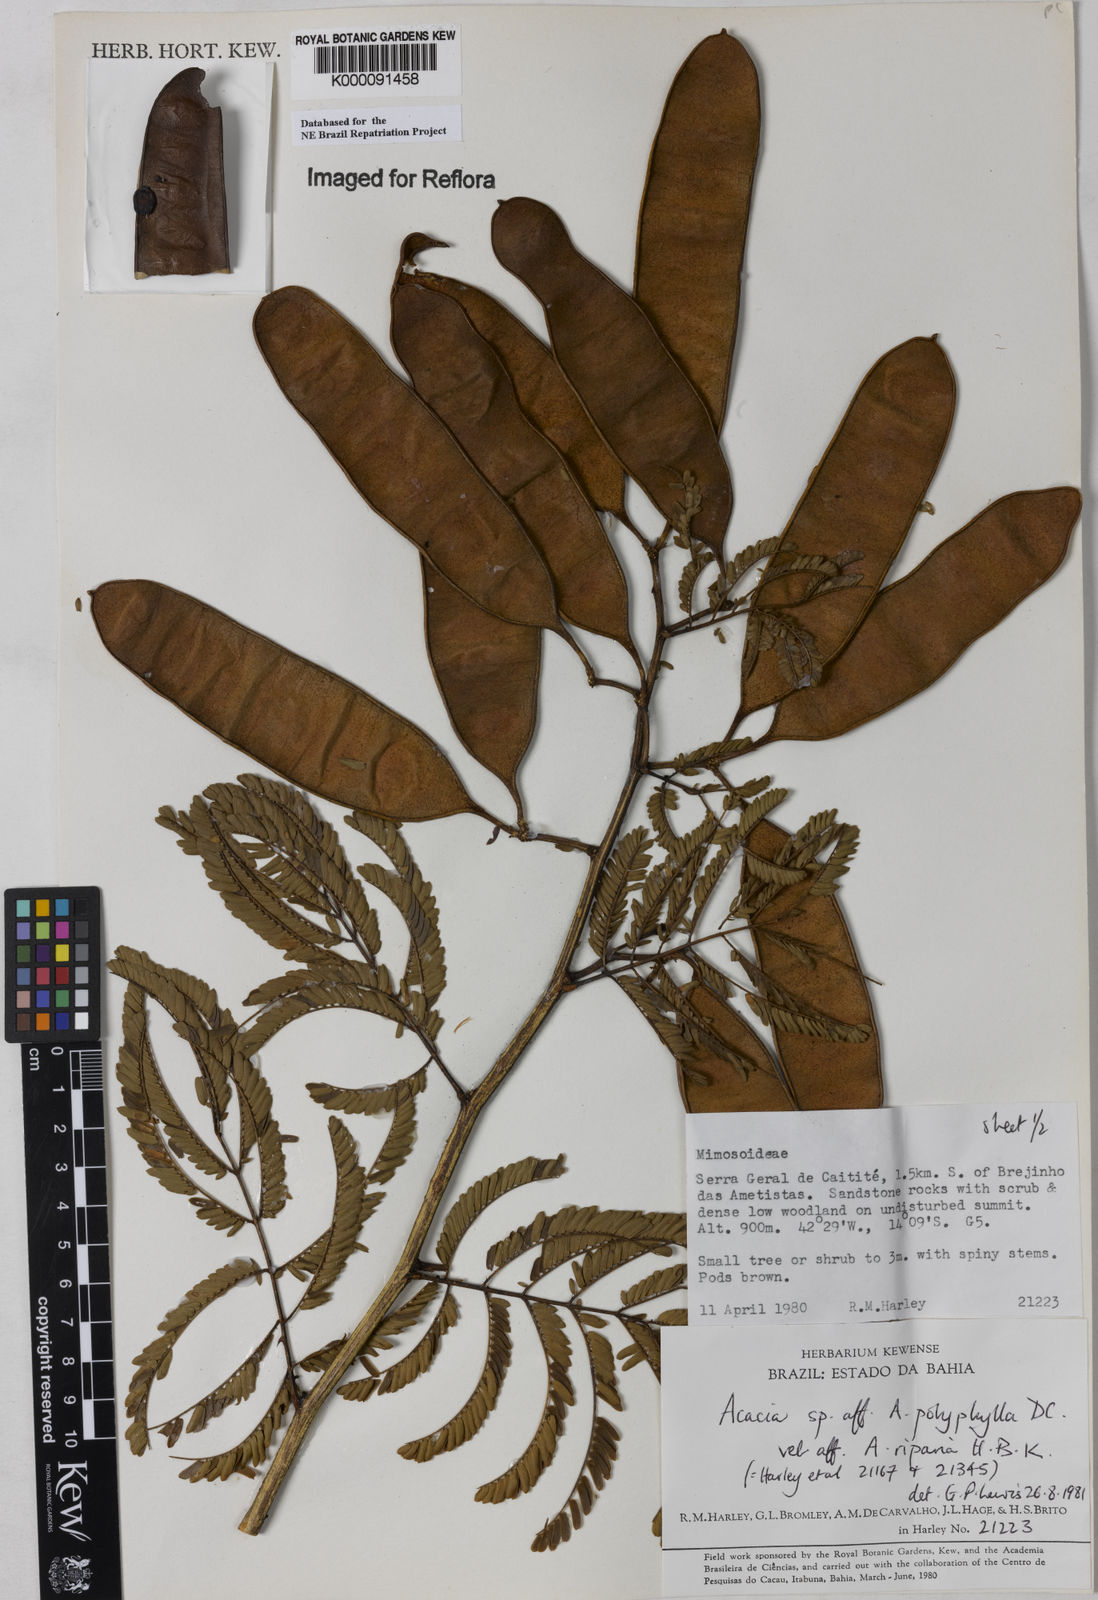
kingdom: Plantae
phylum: Tracheophyta
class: Magnoliopsida
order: Fabales
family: Fabaceae
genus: Senegalia
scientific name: Senegalia polyphylla
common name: White-tamarind
